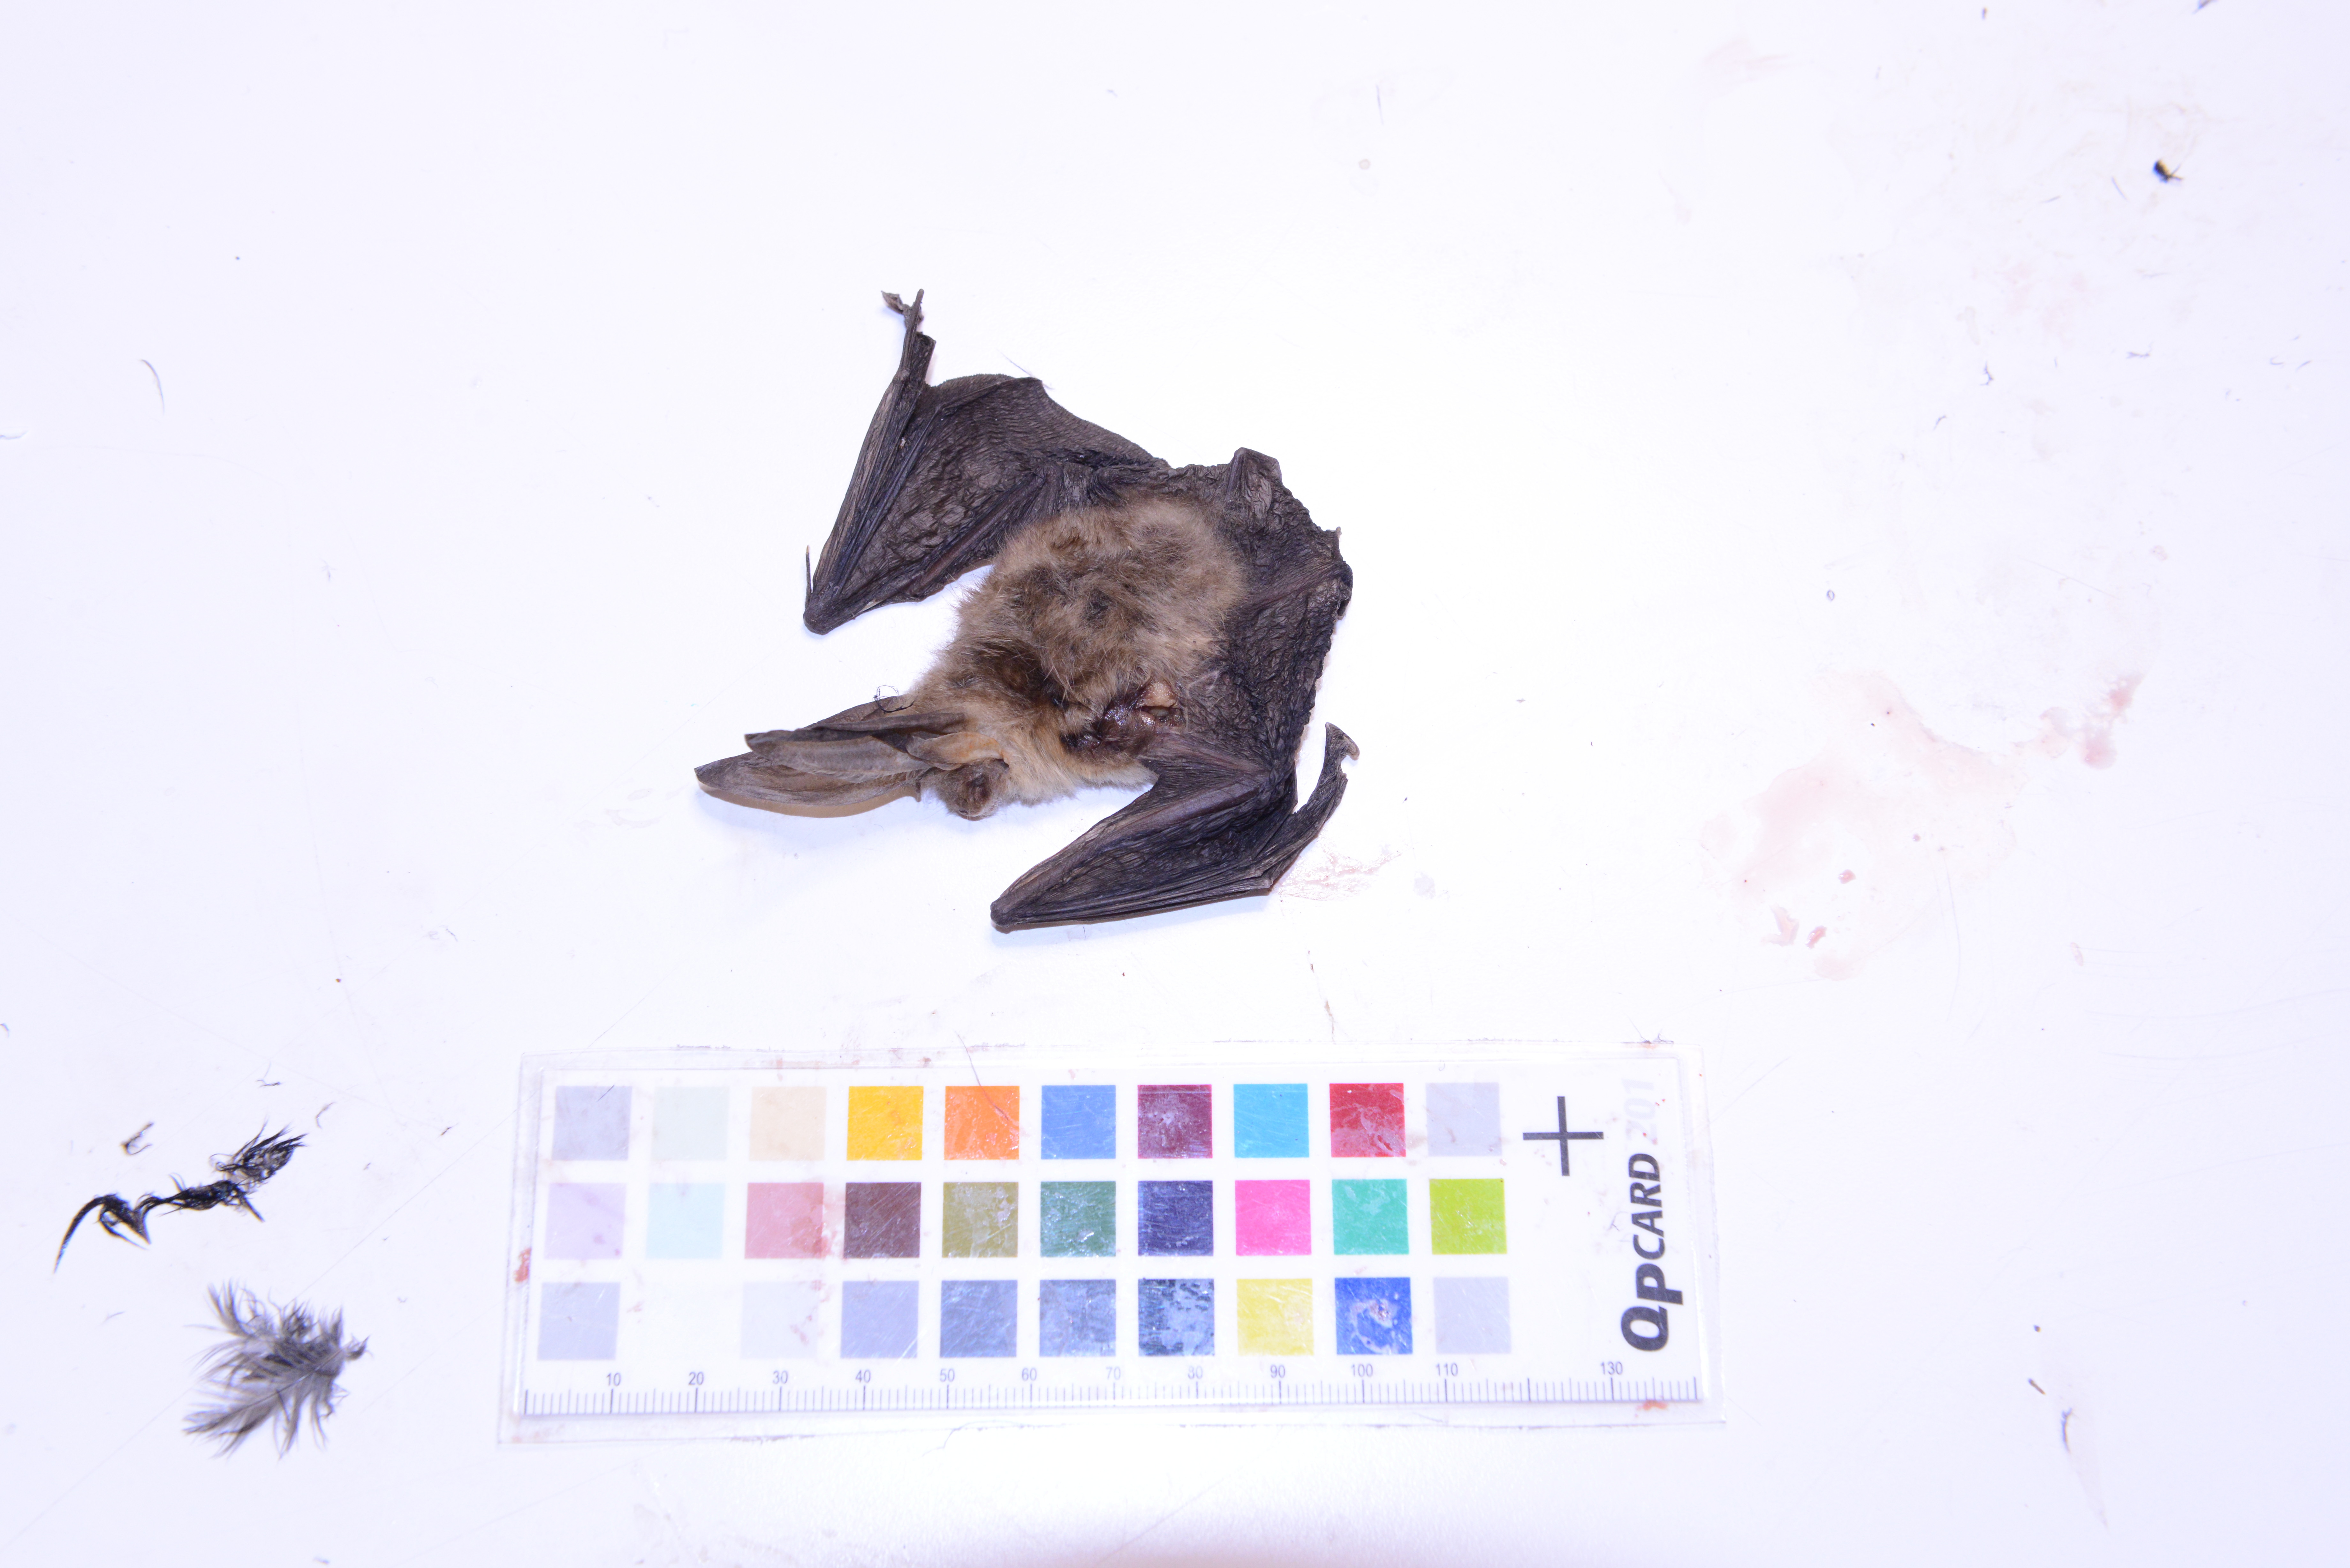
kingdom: Animalia
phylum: Chordata
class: Mammalia
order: Chiroptera
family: Vespertilionidae
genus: Plecotus
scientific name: Plecotus auritus
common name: Brown long-eared bat
